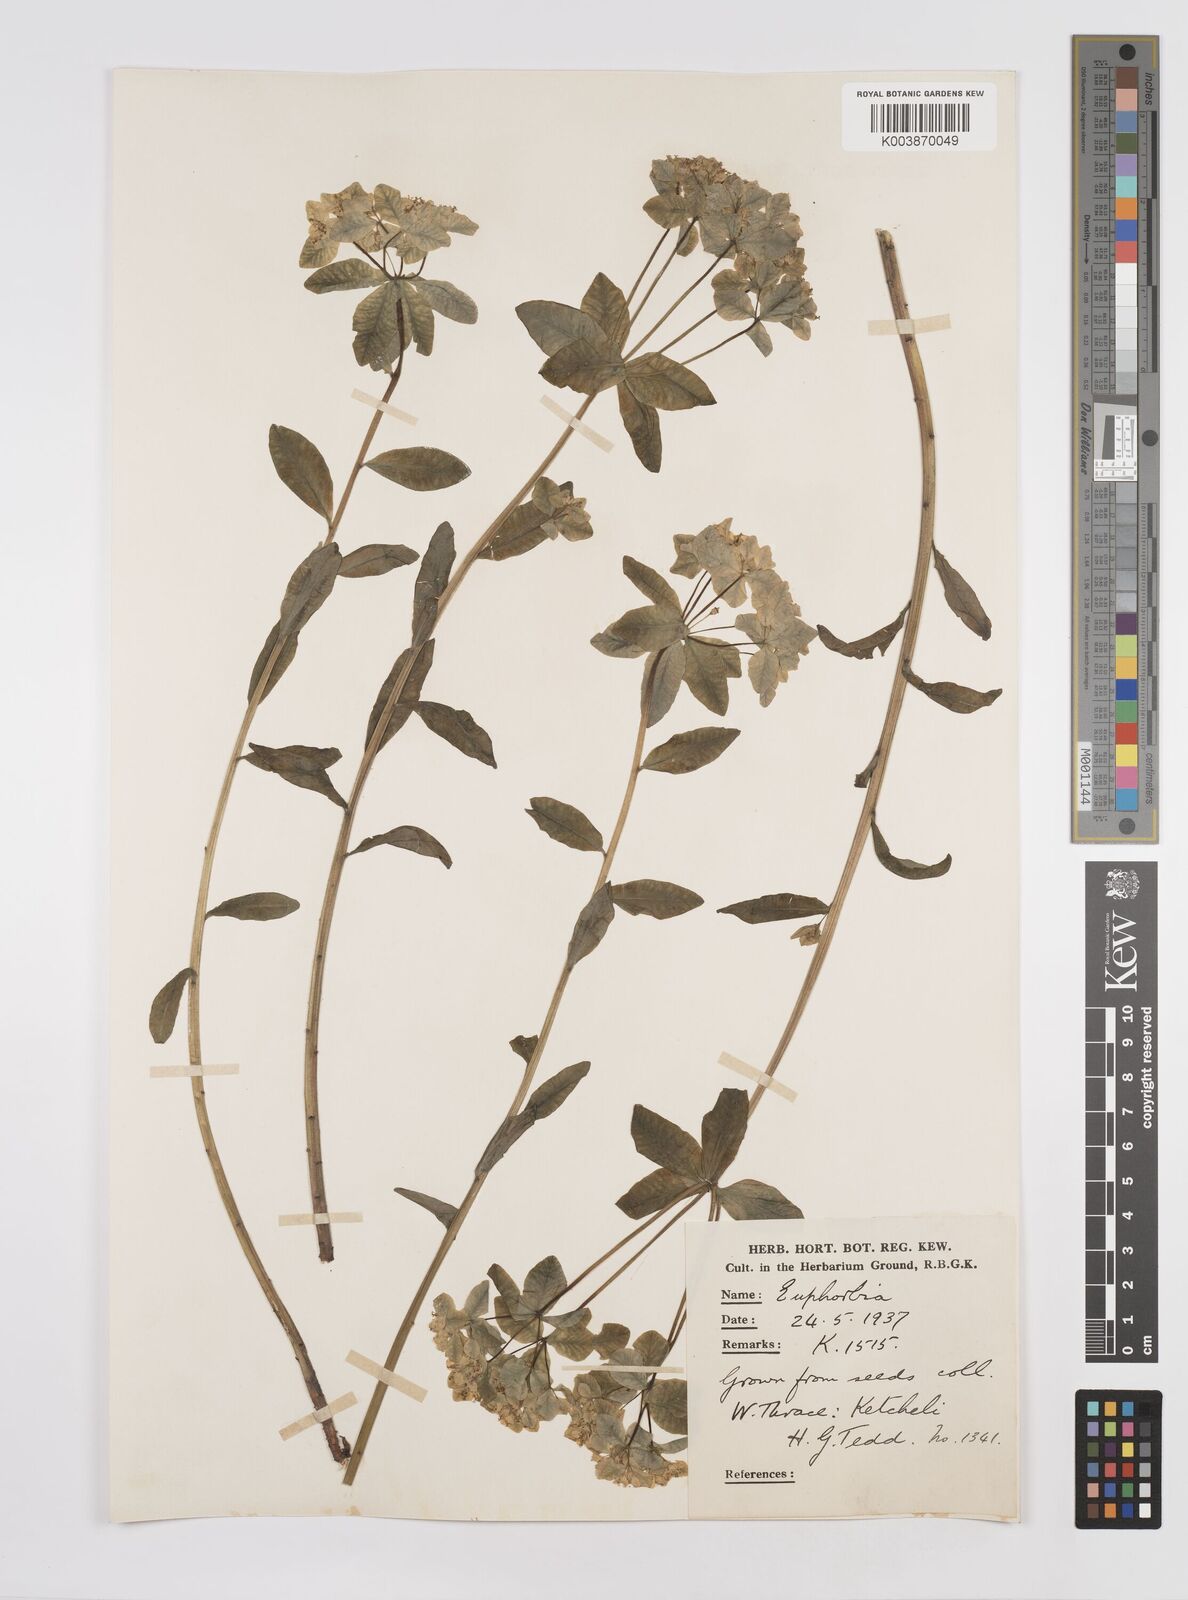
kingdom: Plantae
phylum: Tracheophyta
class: Magnoliopsida
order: Malpighiales
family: Euphorbiaceae
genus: Euphorbia
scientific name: Euphorbia epithymoides
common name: Cushion spurge
